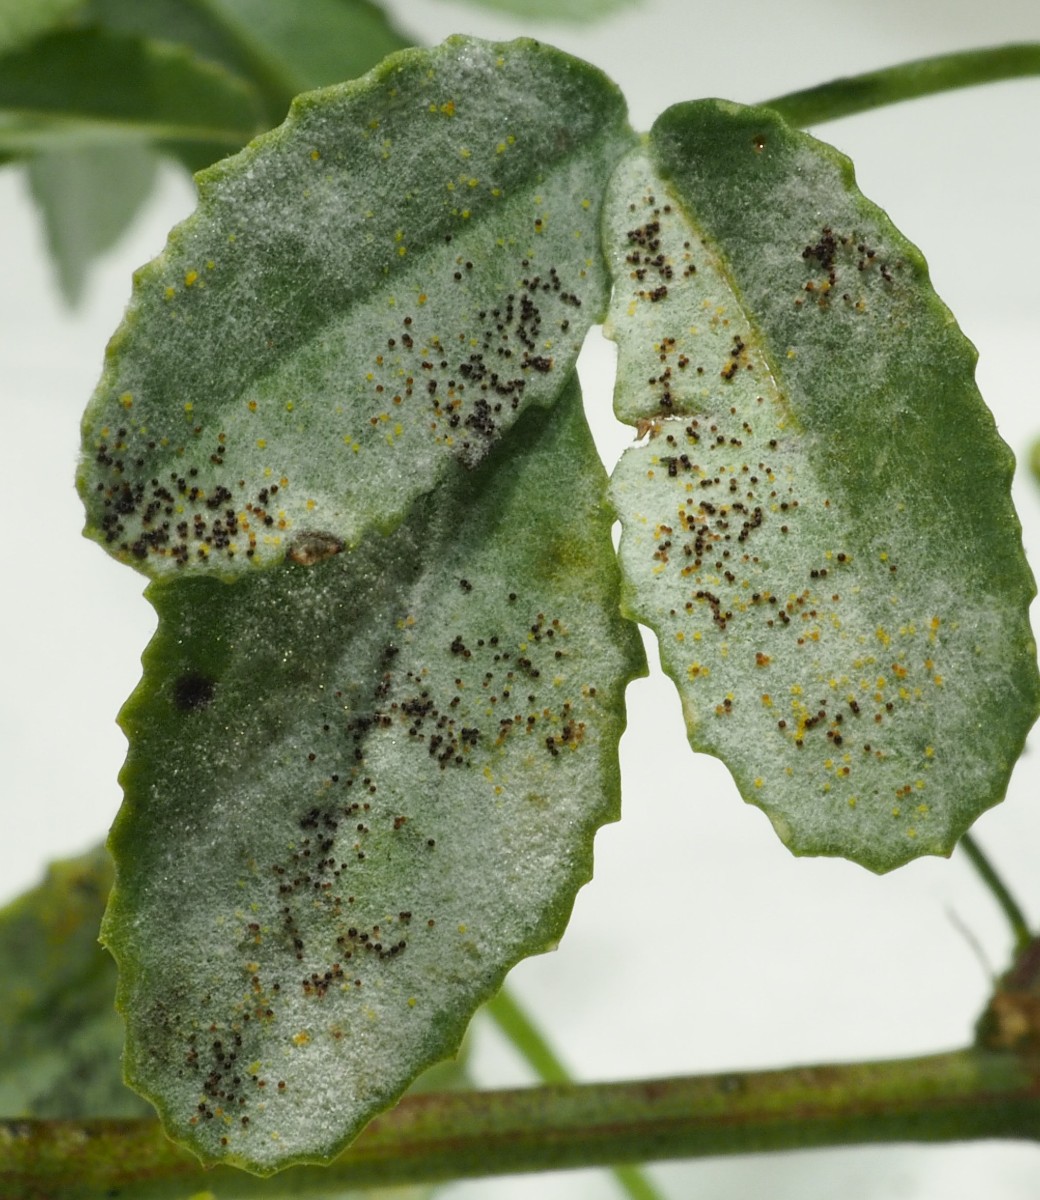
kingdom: Fungi
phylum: Ascomycota
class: Leotiomycetes
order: Helotiales
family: Erysiphaceae
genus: Erysiphe
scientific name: Erysiphe trifoliorum
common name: kløver-meldug
